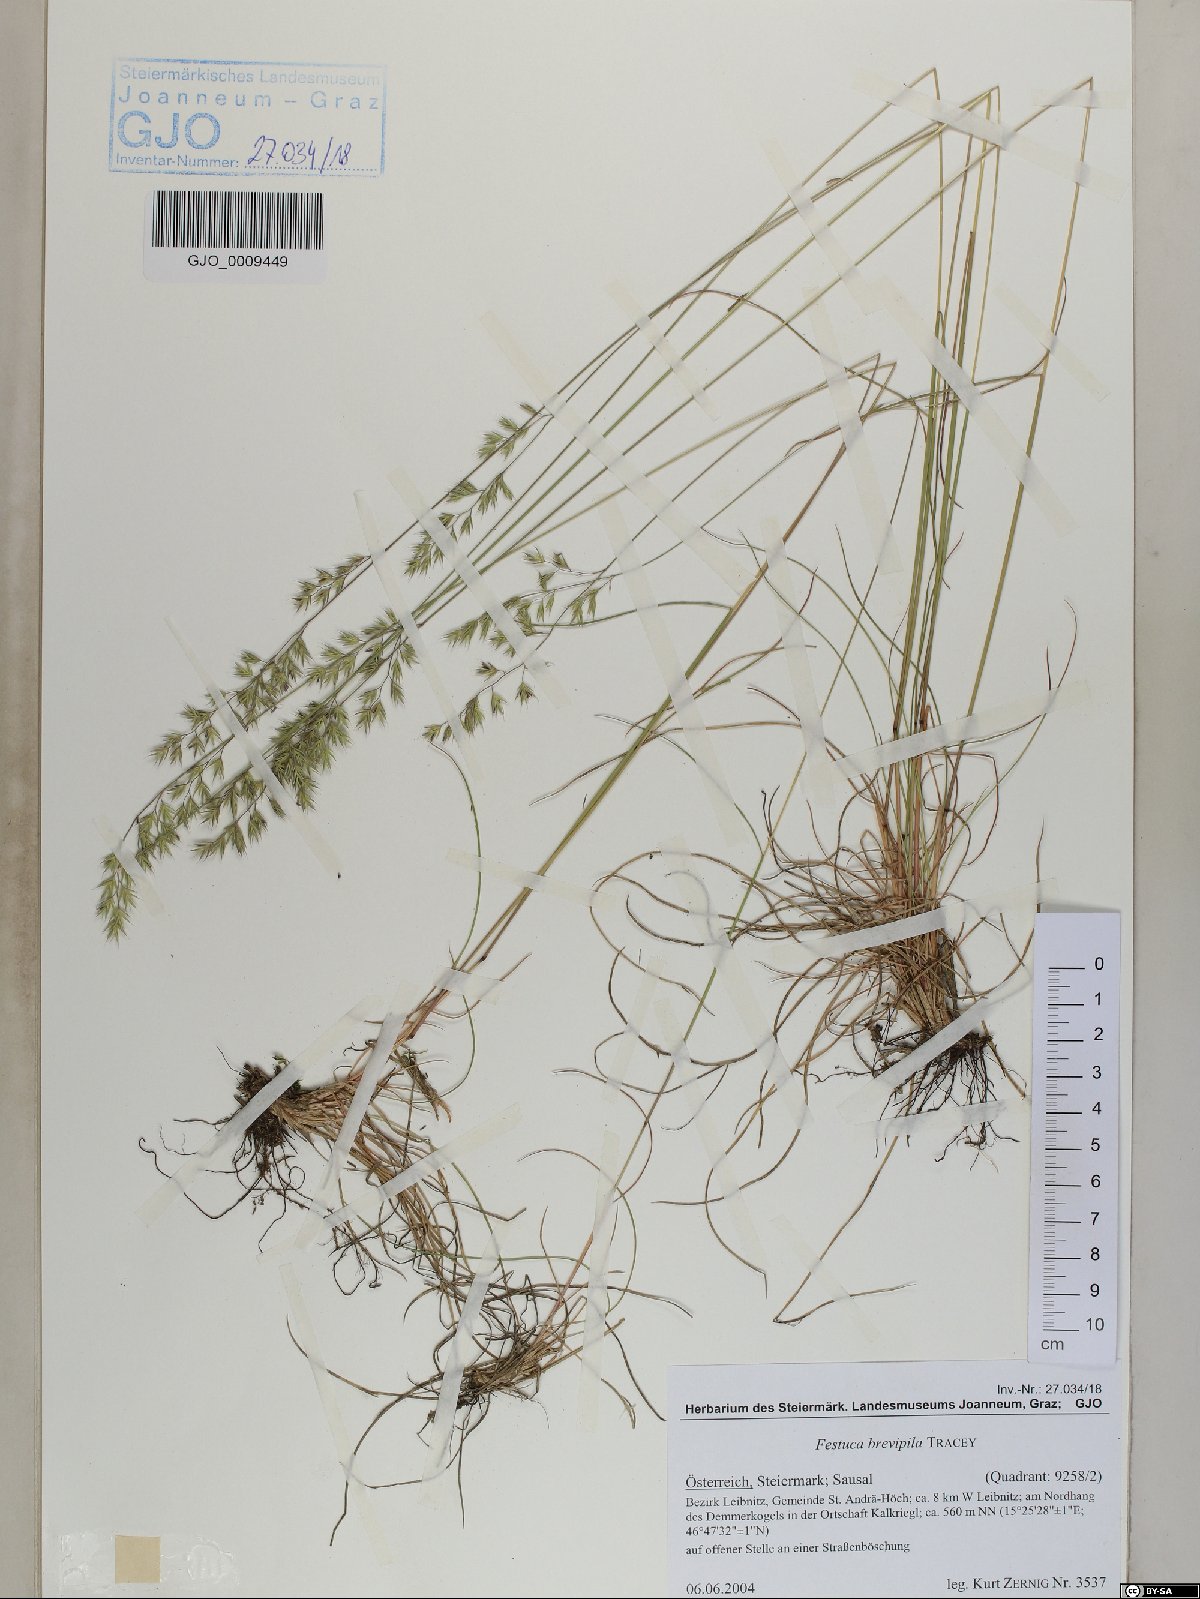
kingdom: Plantae
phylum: Tracheophyta
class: Liliopsida
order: Poales
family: Poaceae
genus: Festuca
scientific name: Festuca trachyphylla
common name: Hard fescue
